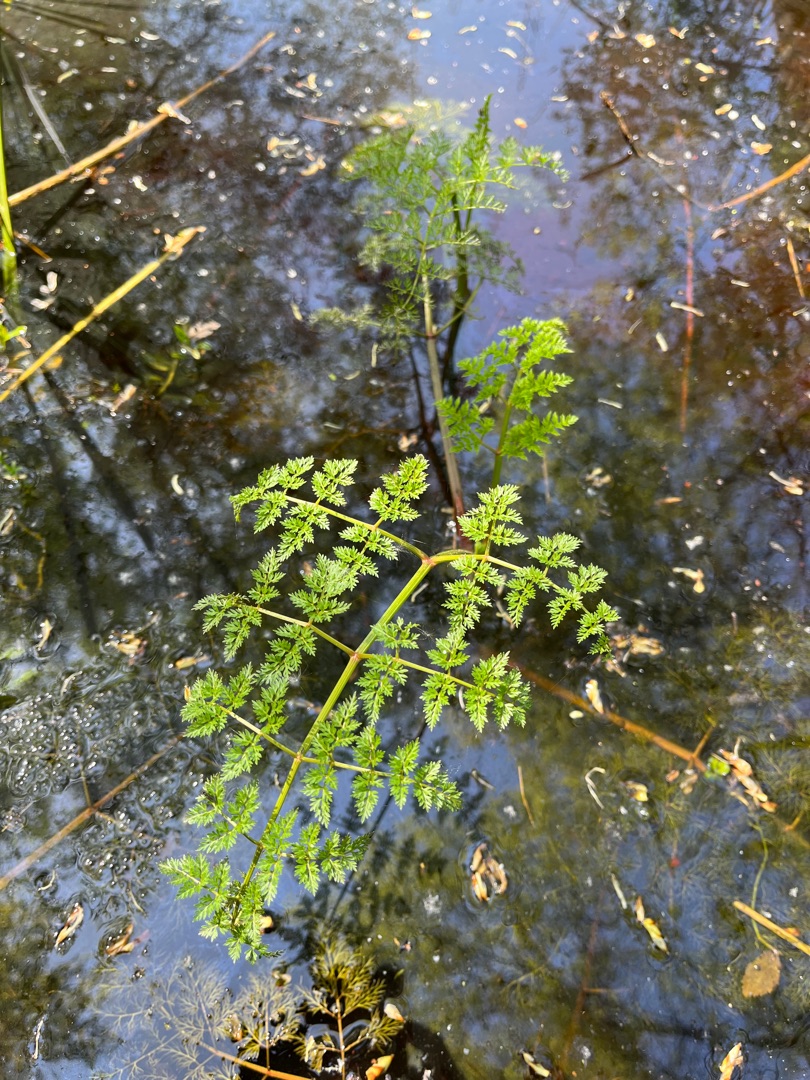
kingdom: Plantae
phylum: Tracheophyta
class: Magnoliopsida
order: Apiales
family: Apiaceae
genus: Oenanthe
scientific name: Oenanthe aquatica
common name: Billebo-klaseskærm
